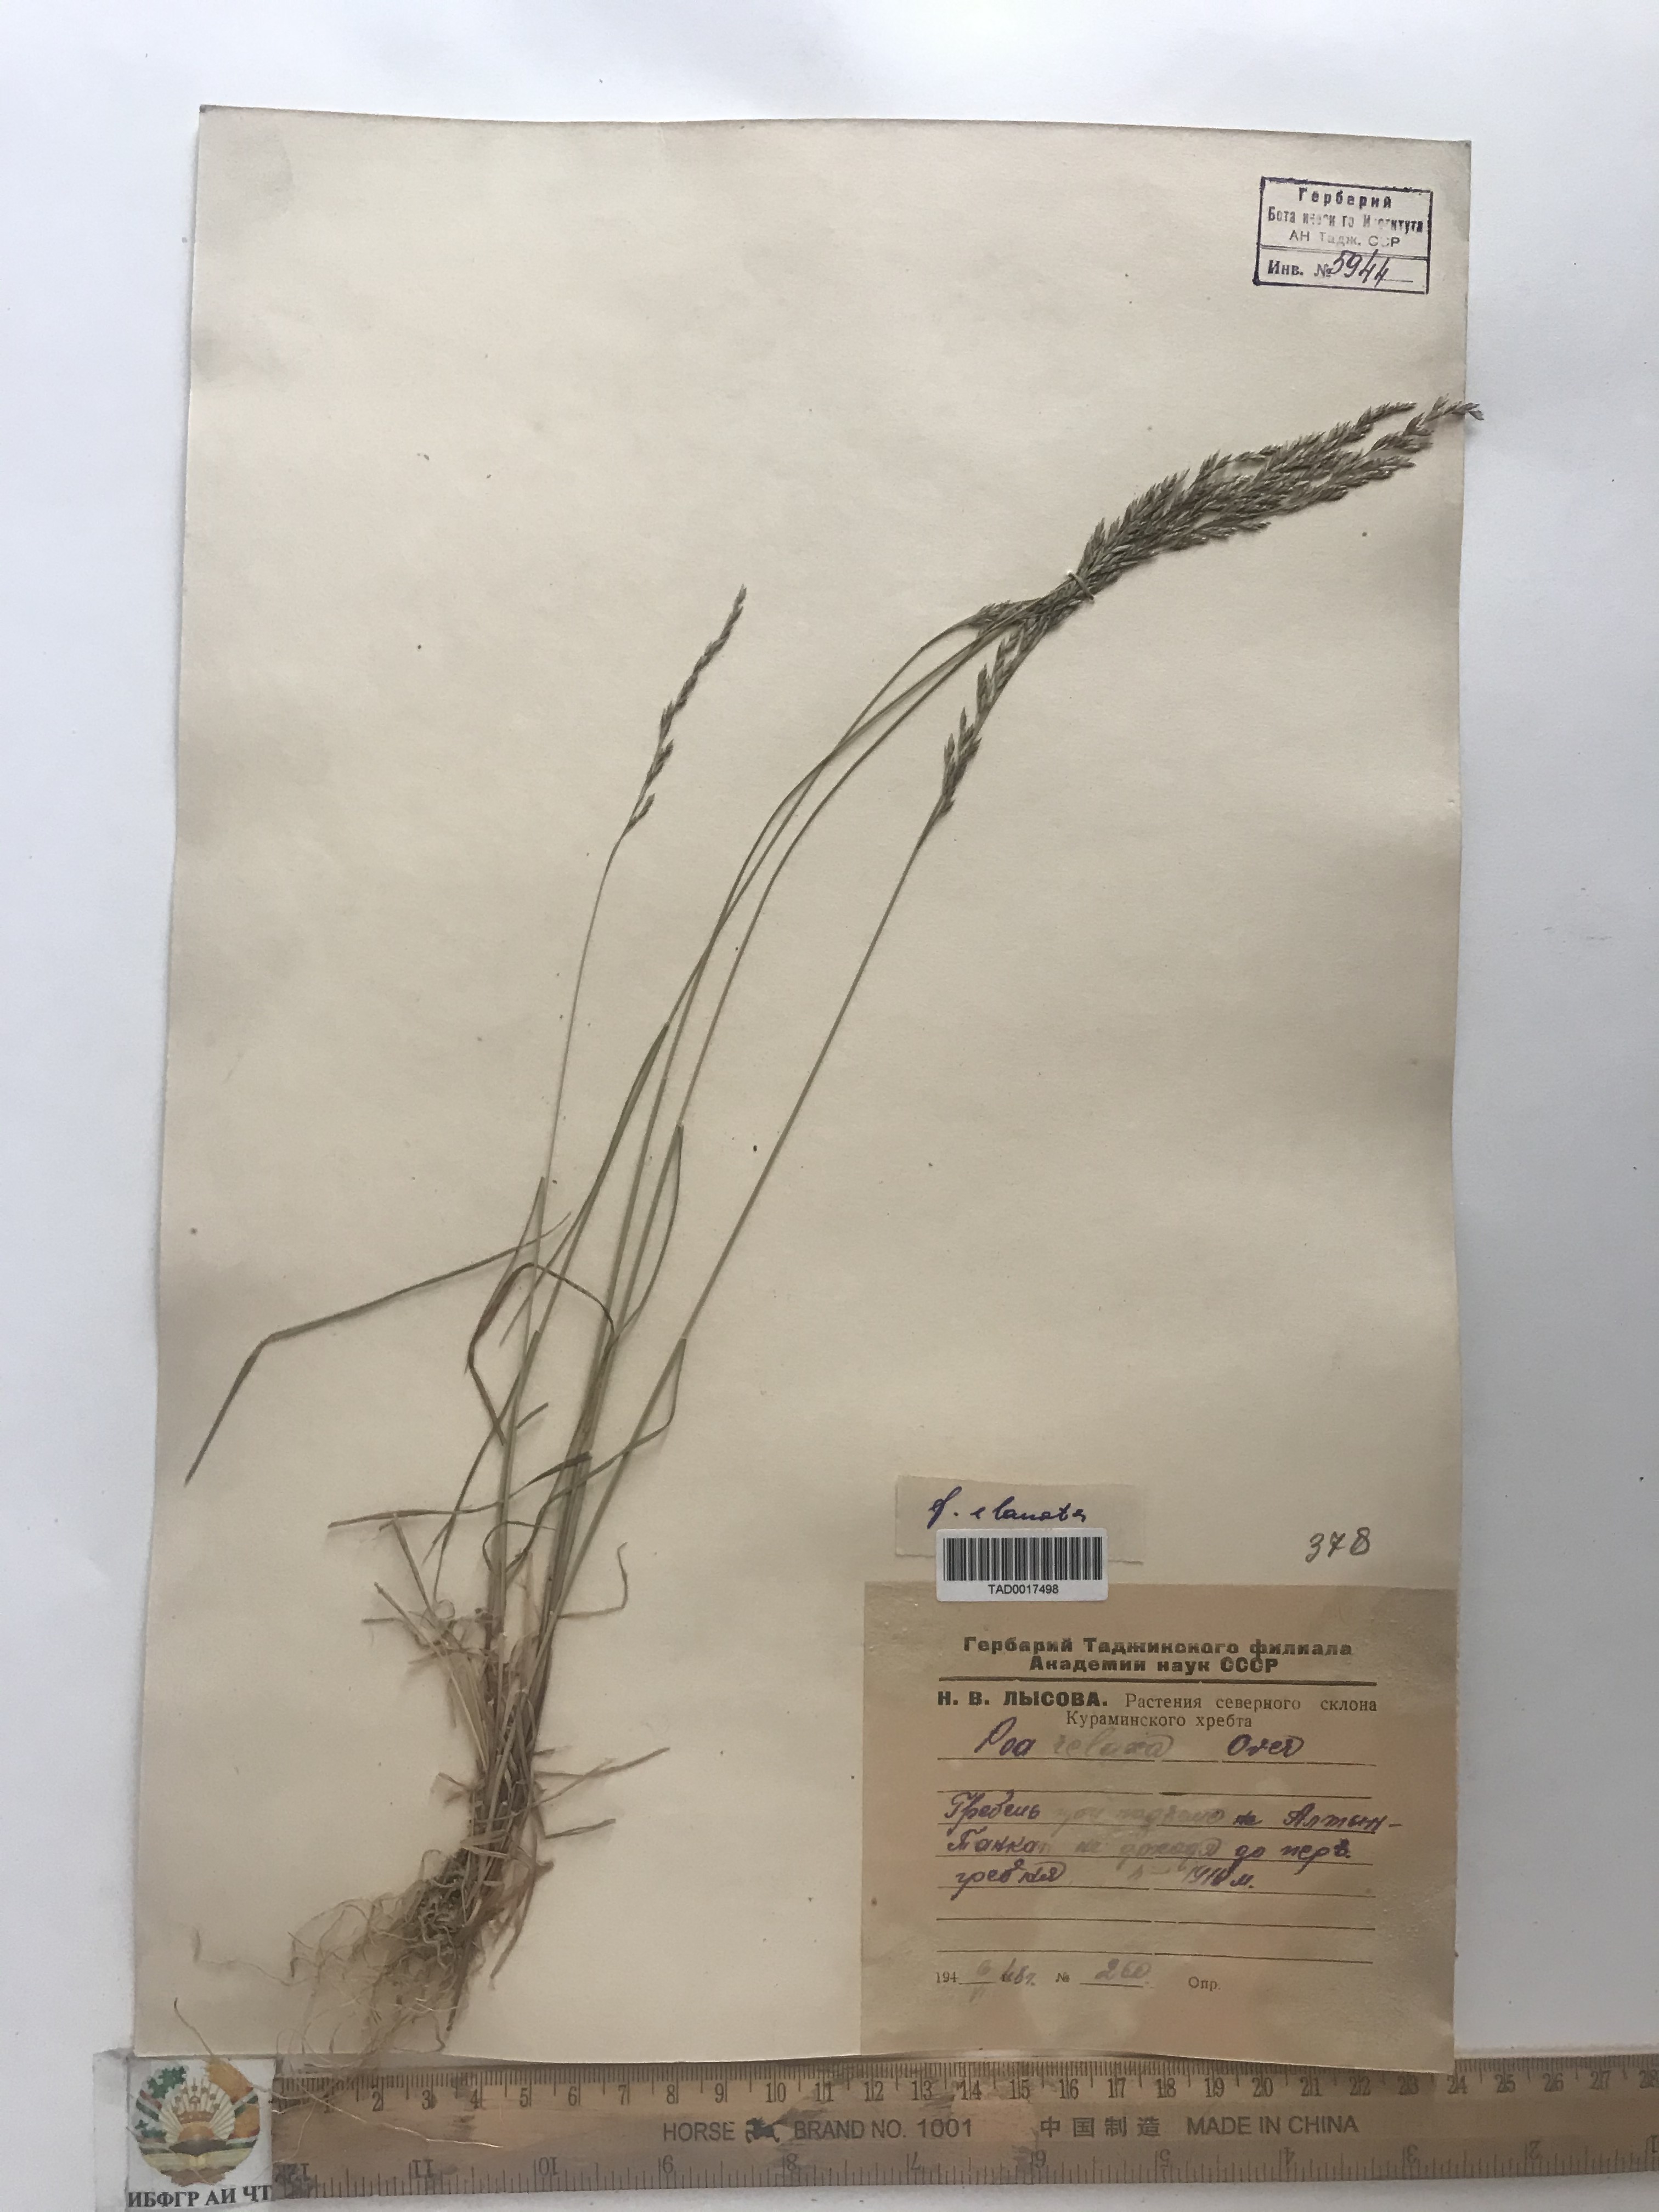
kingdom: Plantae
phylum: Tracheophyta
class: Liliopsida
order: Poales
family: Poaceae
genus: Poa
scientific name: Poa versicolor
